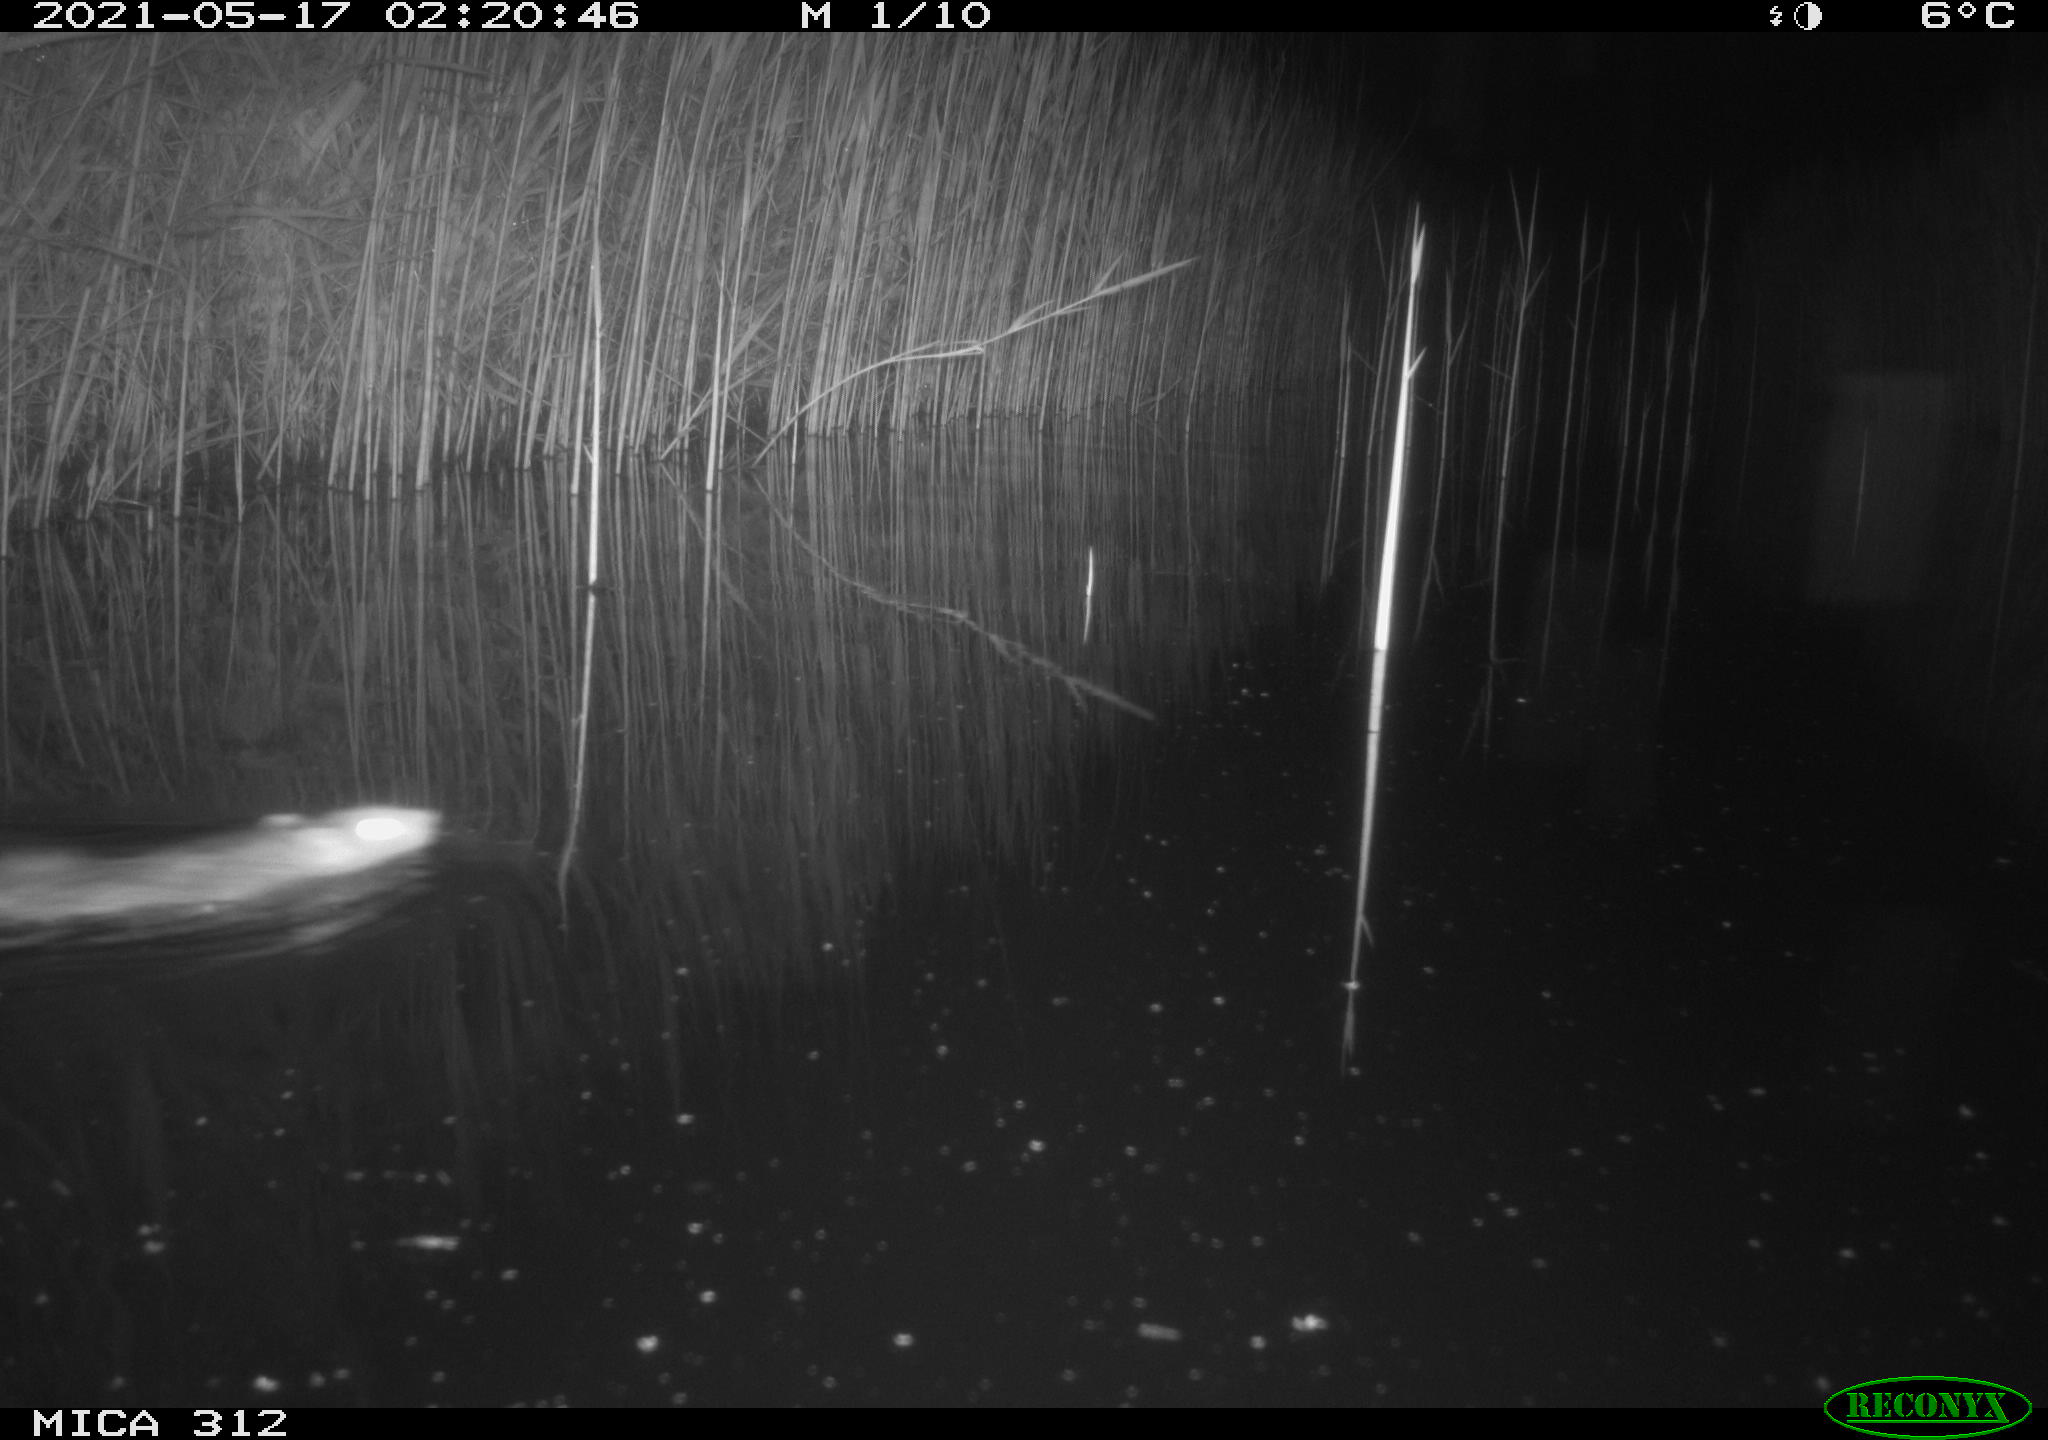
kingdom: Animalia
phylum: Chordata
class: Mammalia
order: Rodentia
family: Muridae
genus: Rattus
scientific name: Rattus norvegicus
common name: Brown rat
